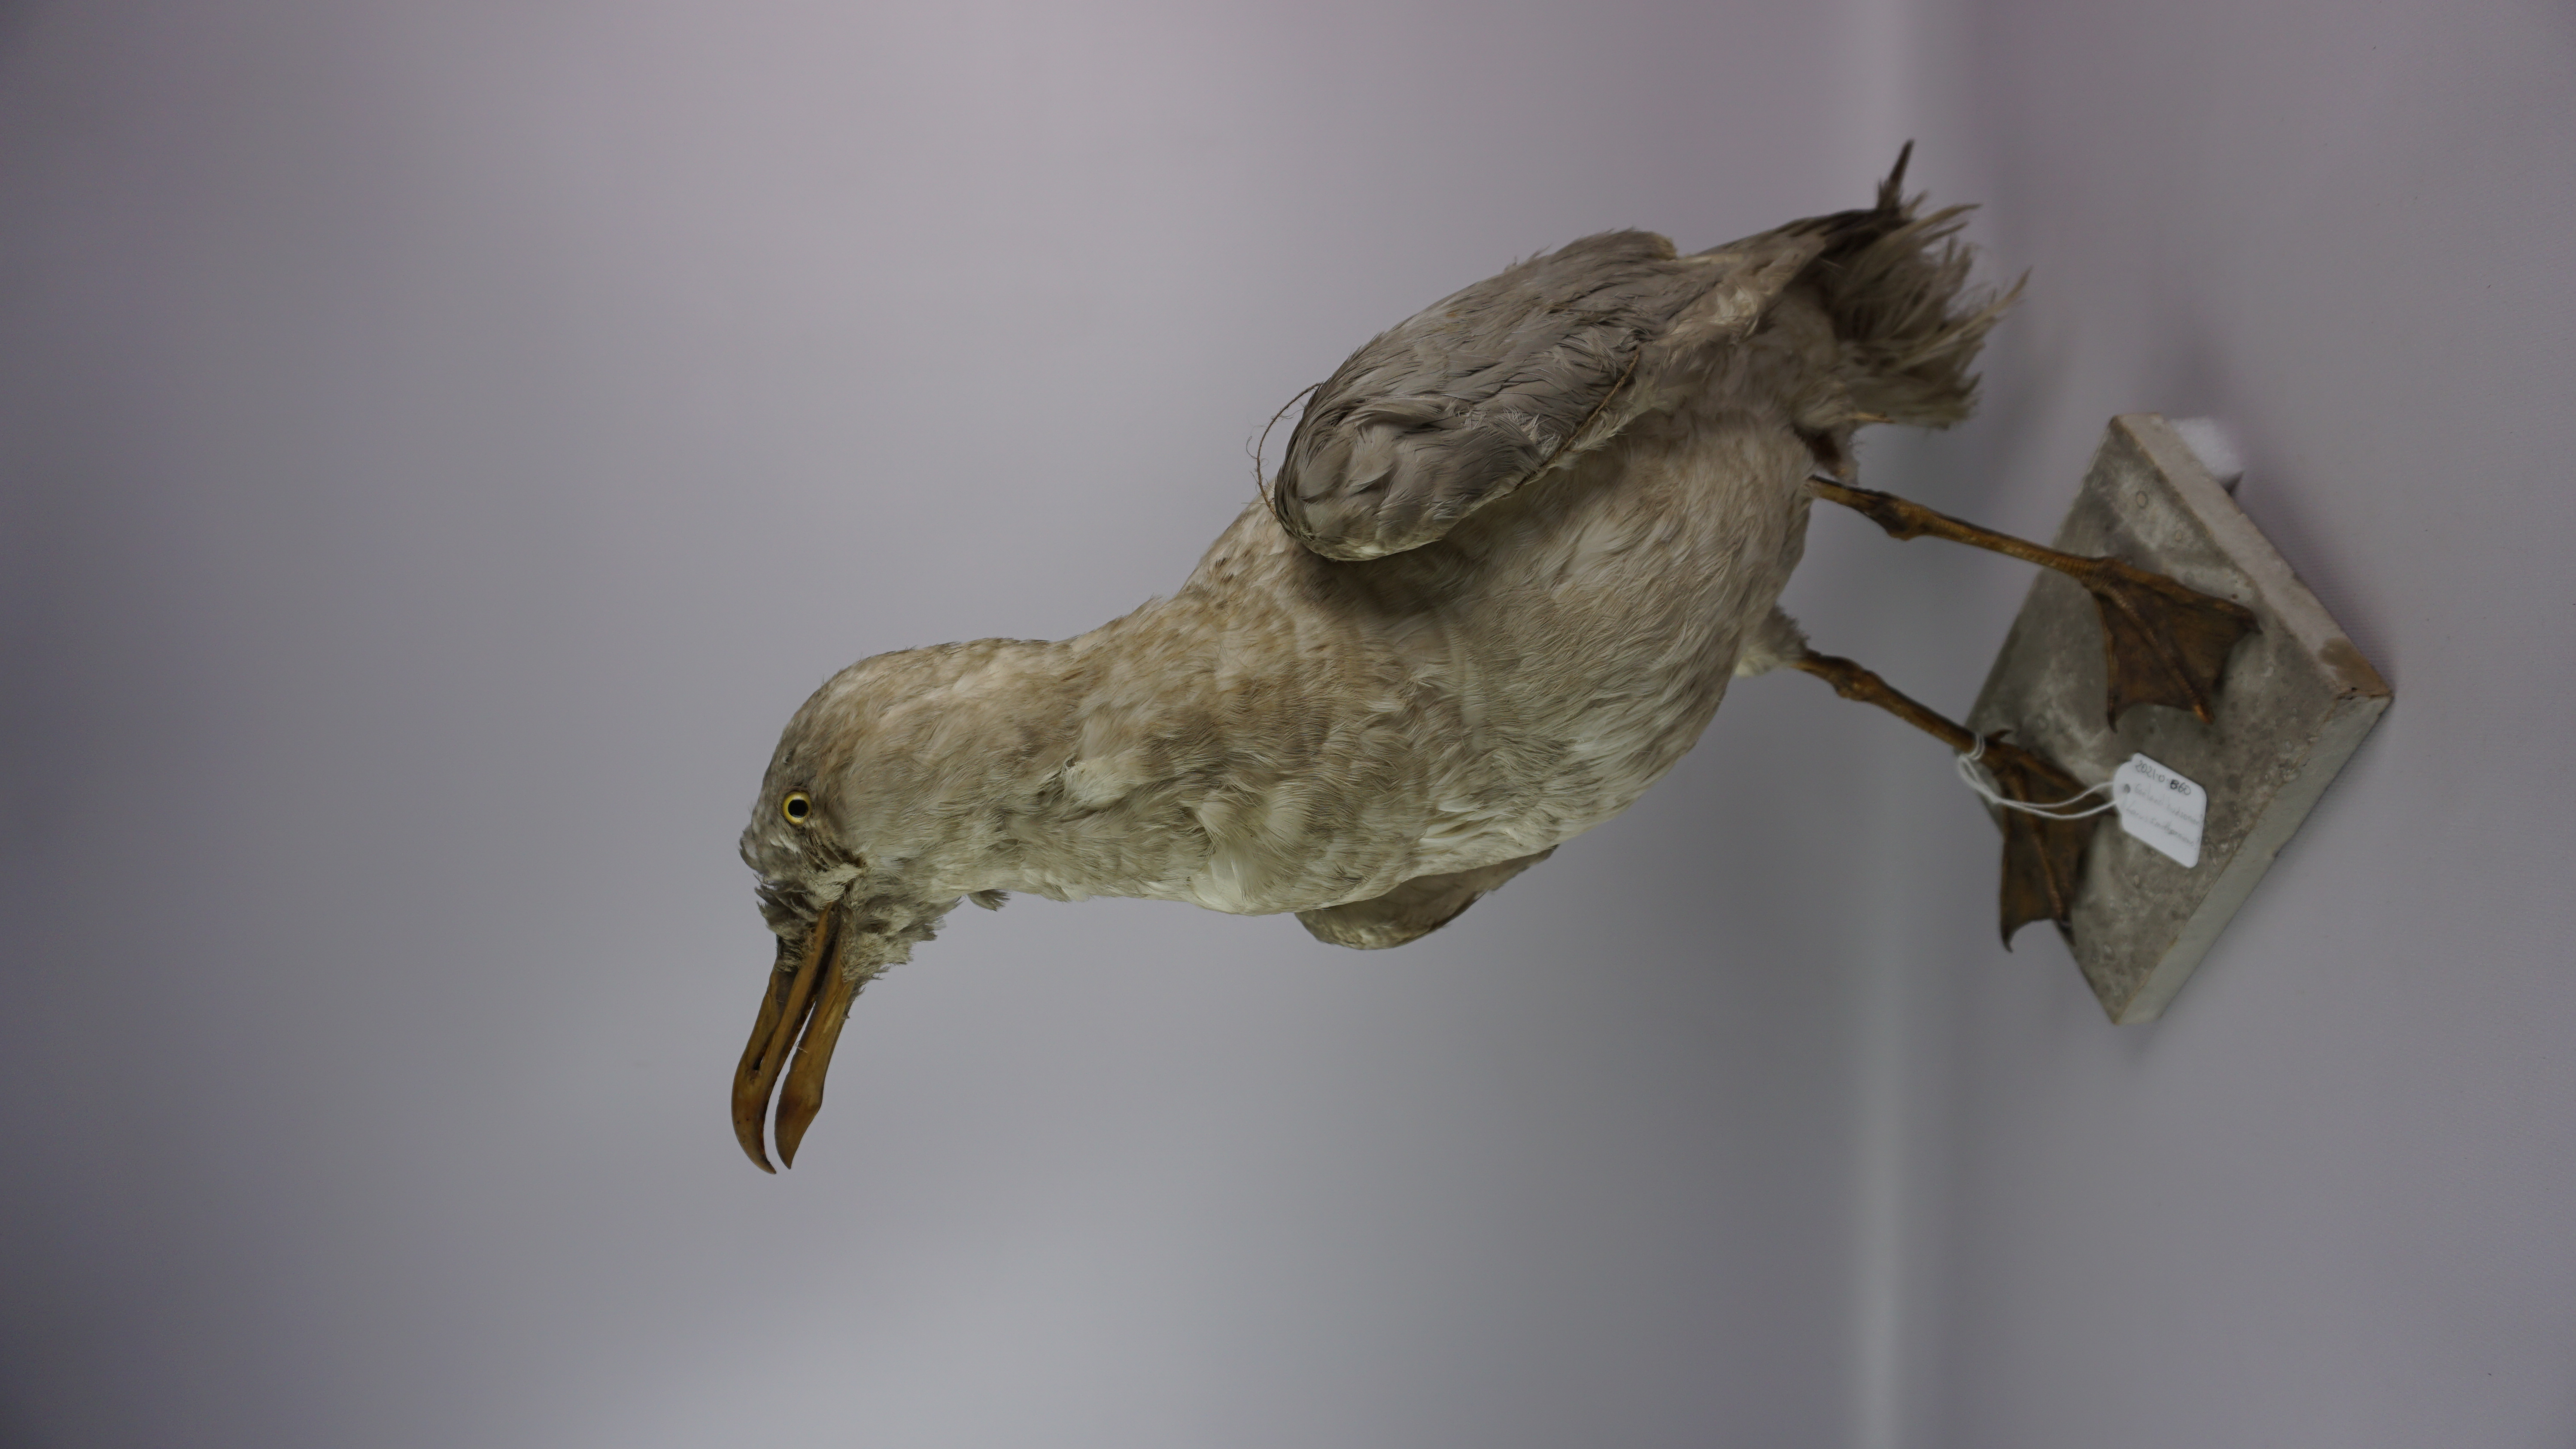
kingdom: Animalia
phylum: Chordata
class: Aves
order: Charadriiformes
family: Laridae
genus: Larus
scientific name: Larus smithsonianus
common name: American herring gull
